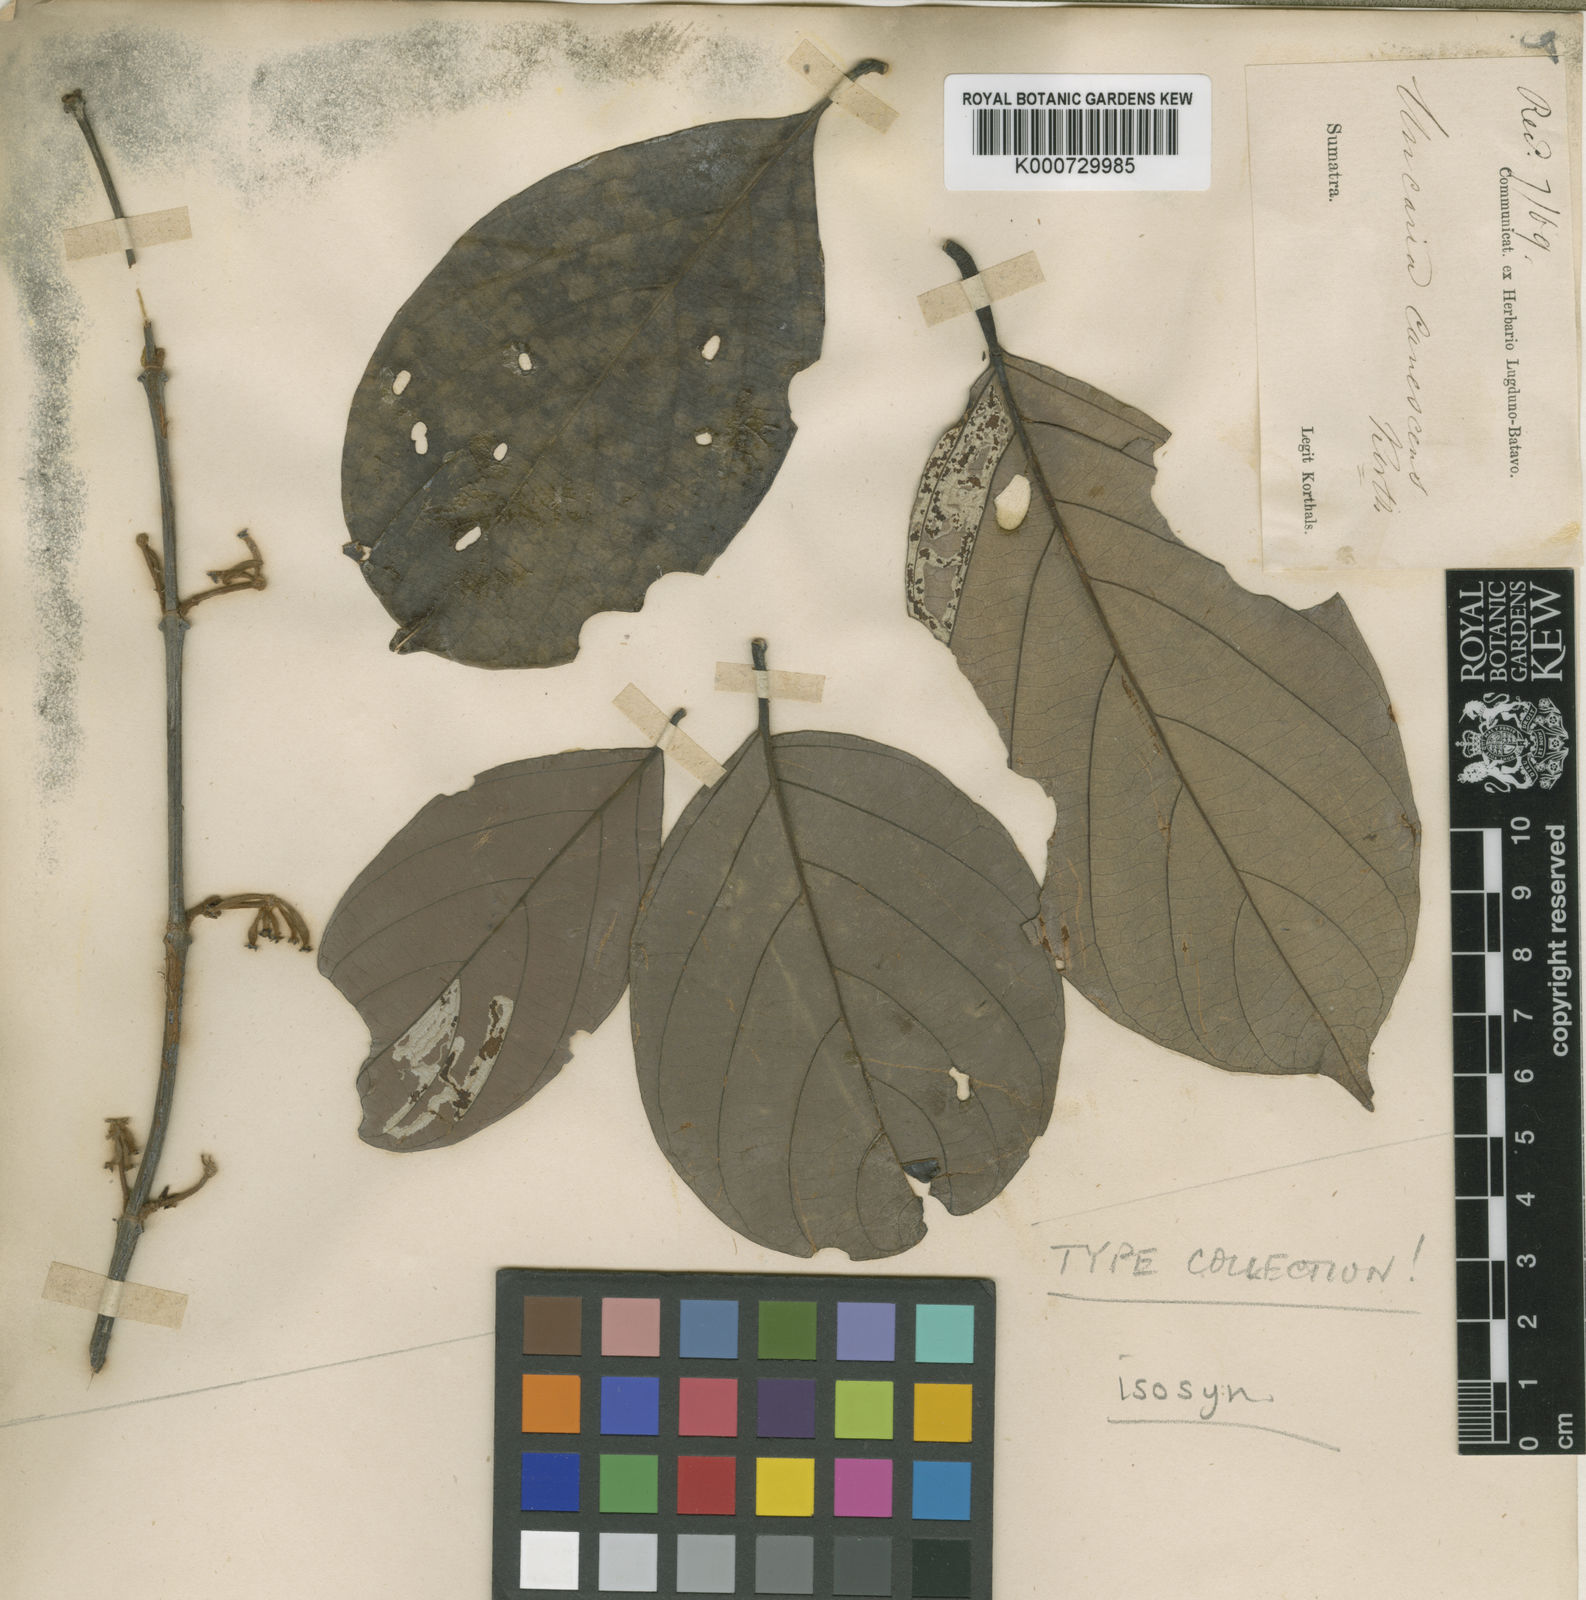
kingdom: Plantae
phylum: Tracheophyta
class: Magnoliopsida
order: Gentianales
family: Rubiaceae
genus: Uncaria
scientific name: Uncaria canescens
